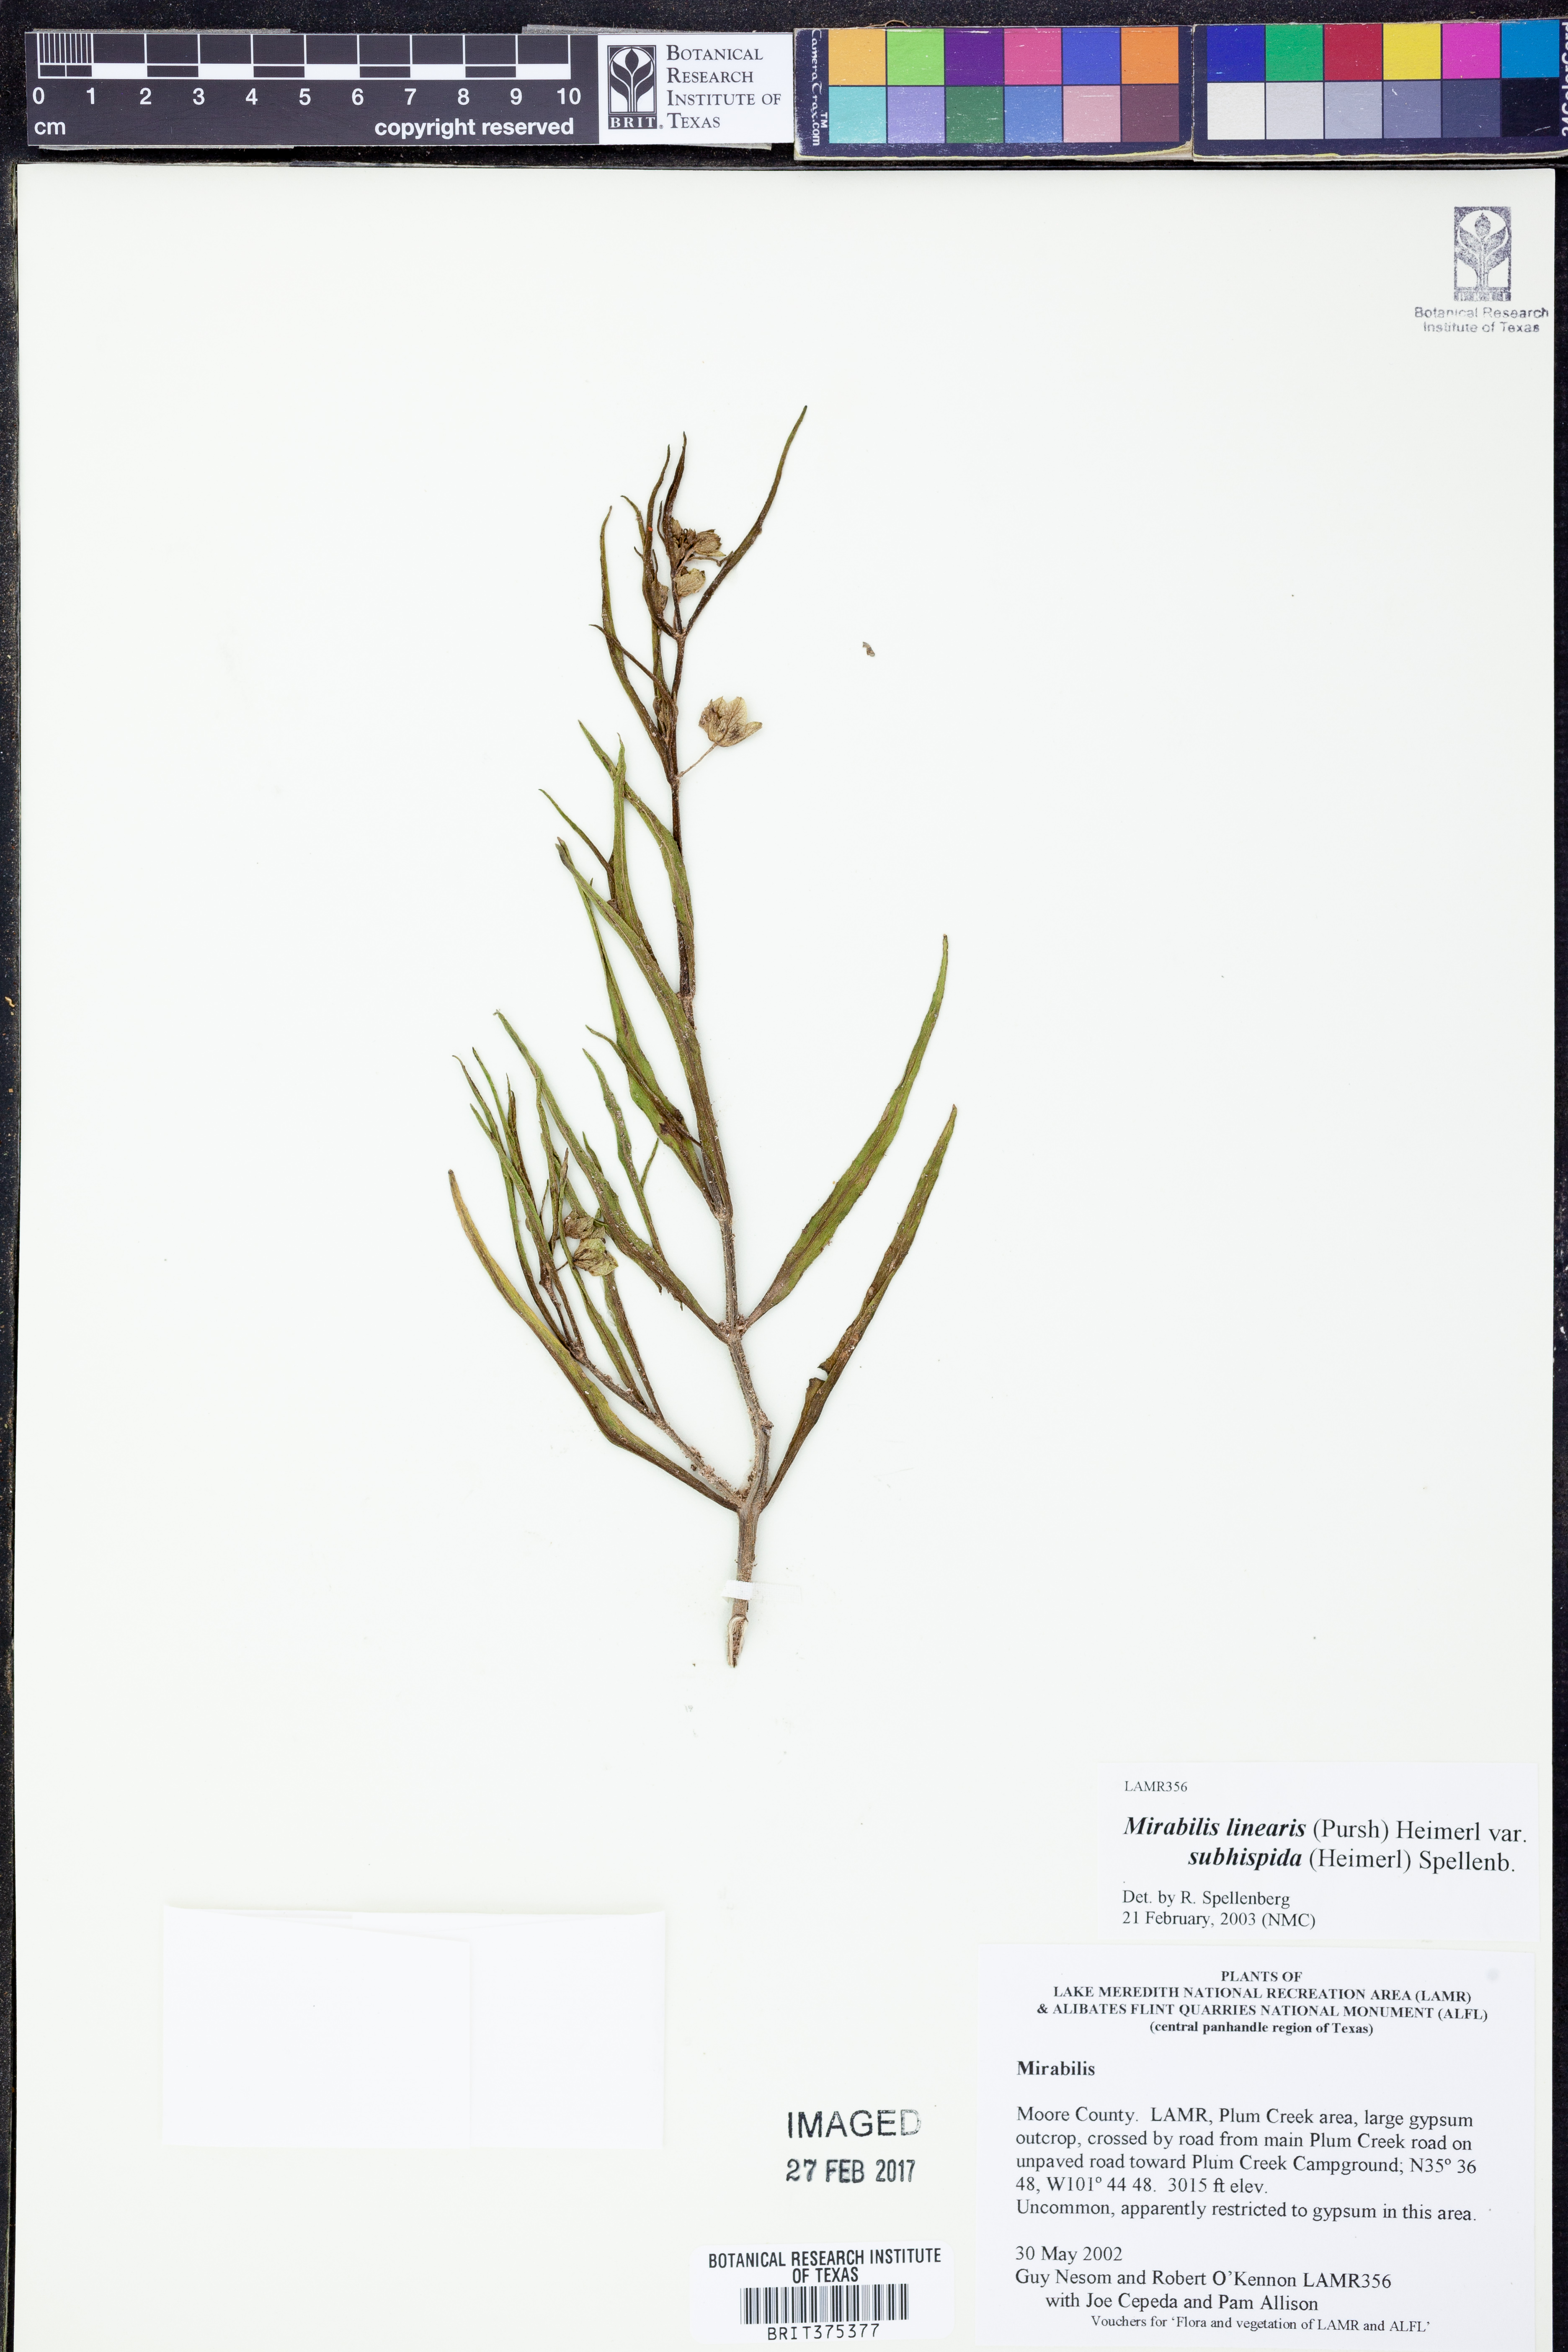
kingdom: Plantae
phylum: Tracheophyta
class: Magnoliopsida
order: Caryophyllales
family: Nyctaginaceae
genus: Mirabilis
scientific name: Mirabilis linearis
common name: Linear-leaved four-o'clock
